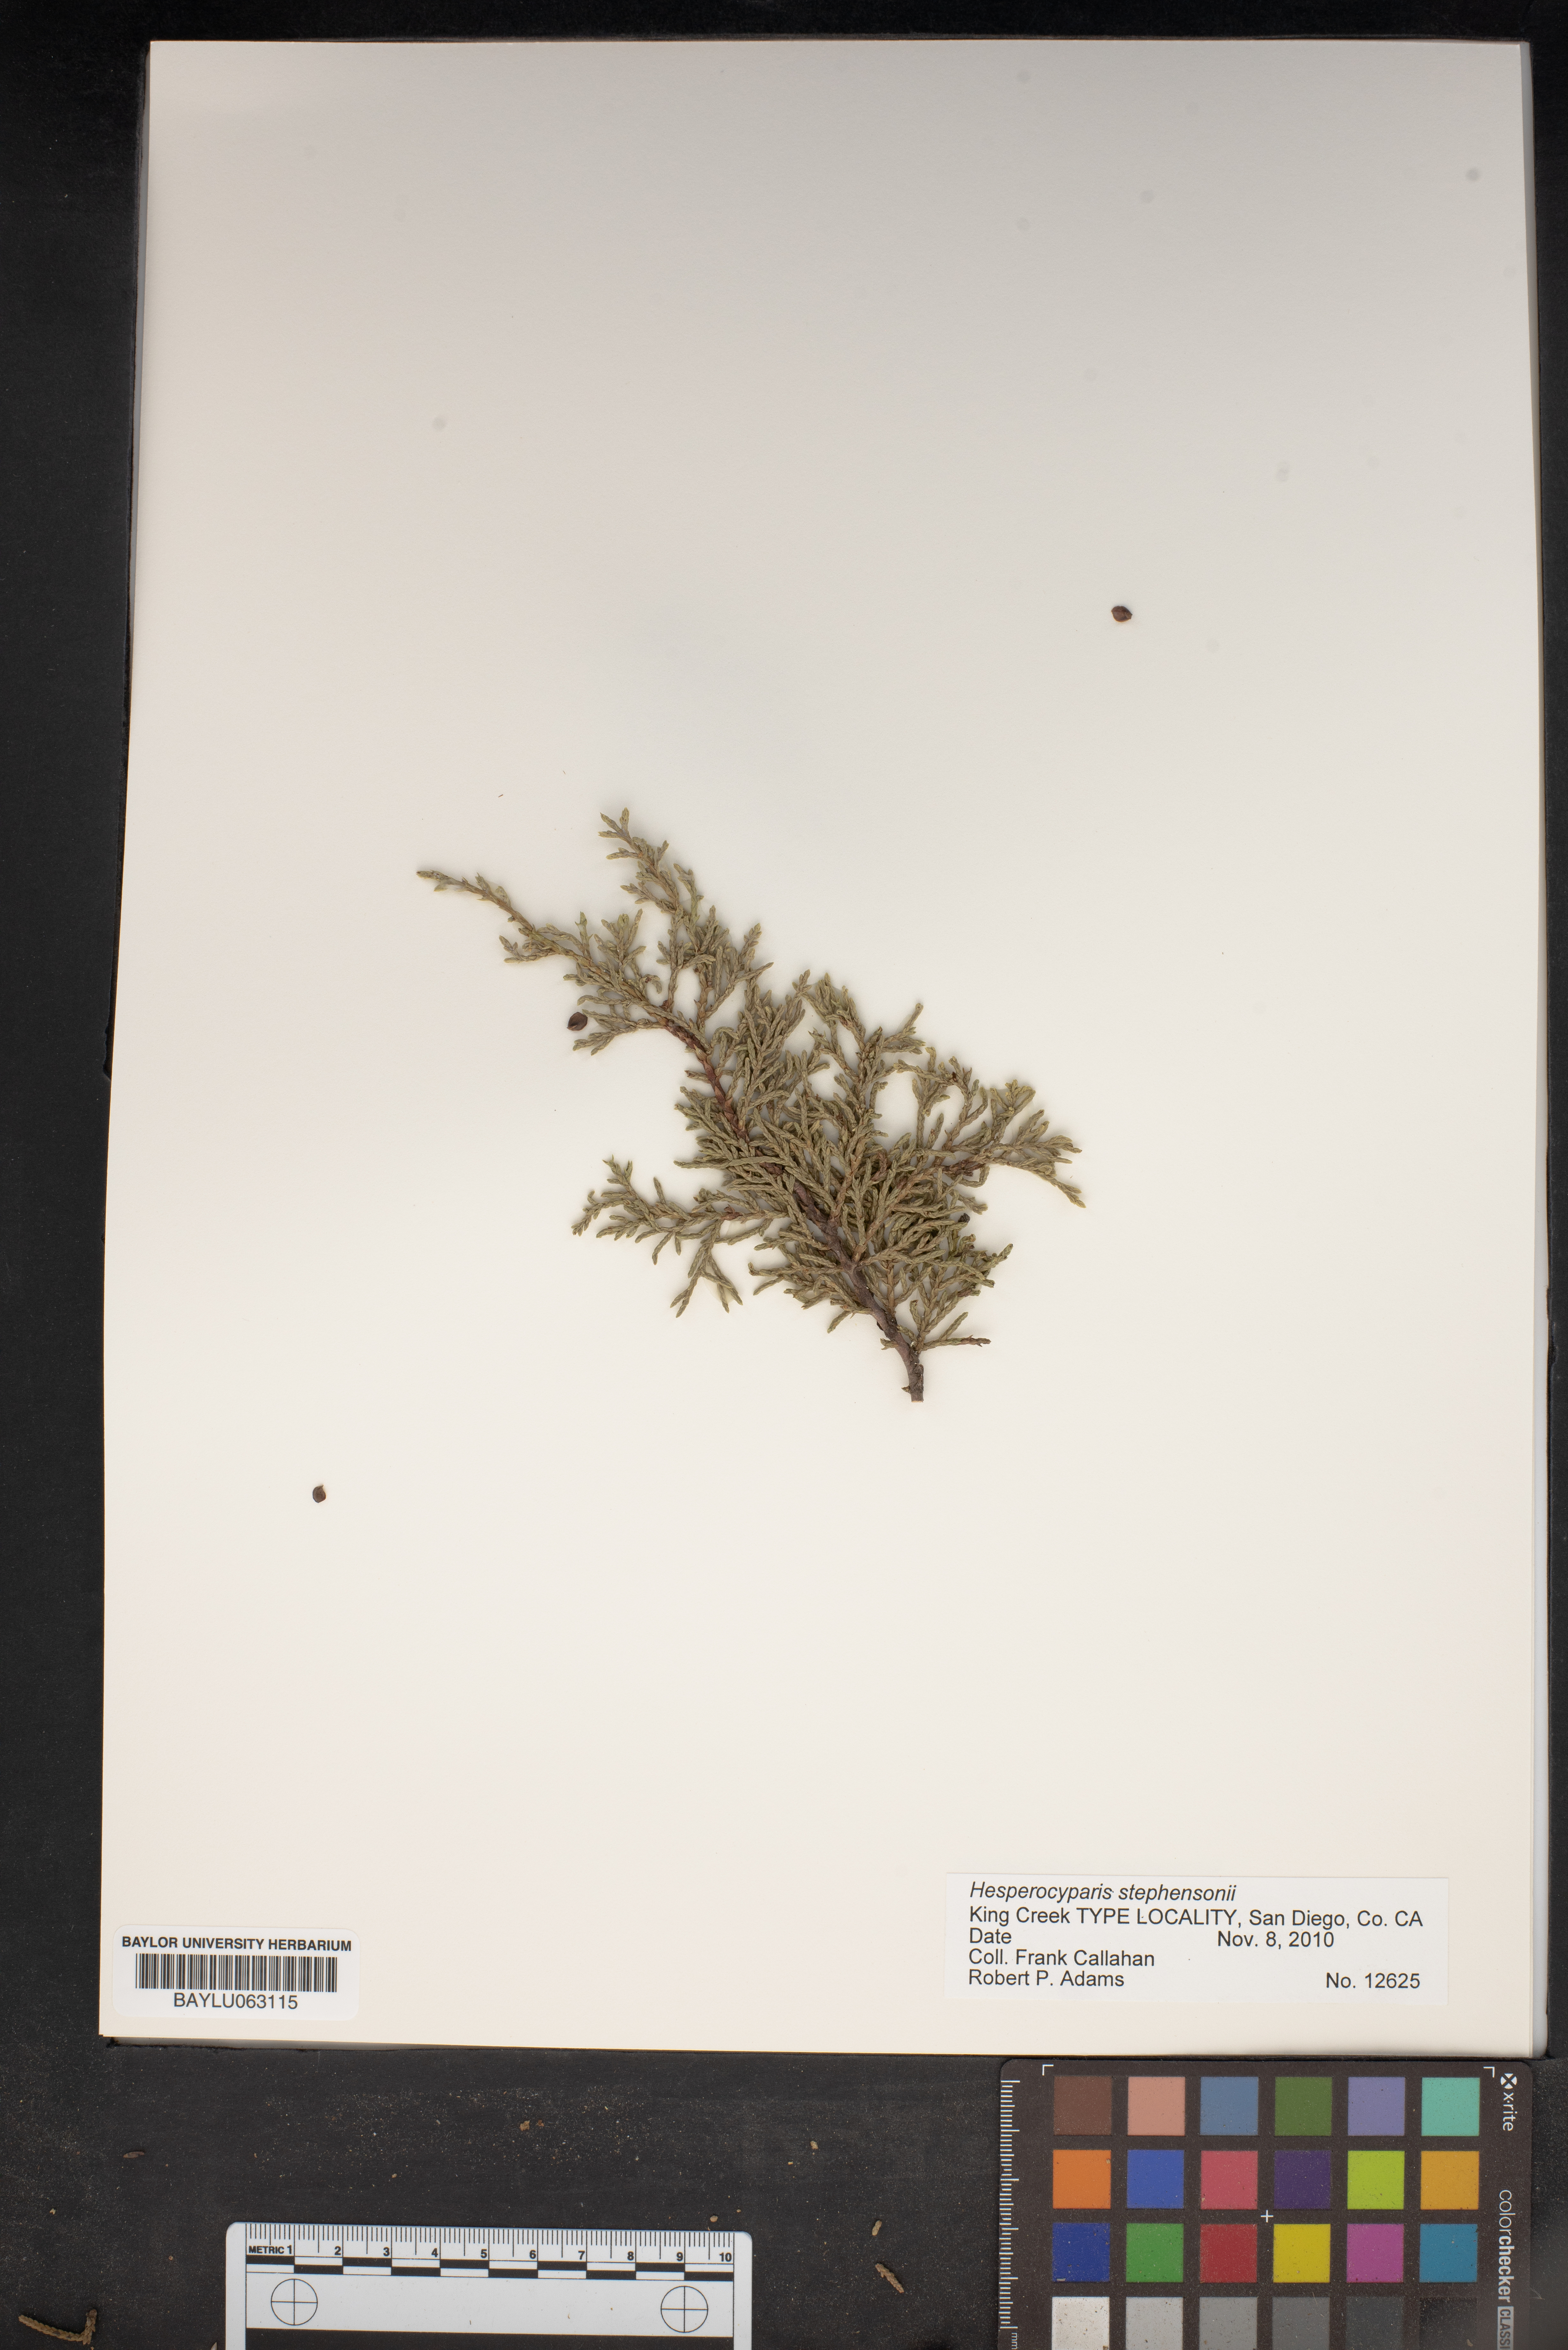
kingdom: Plantae
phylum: Tracheophyta
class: Pinopsida
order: Pinales
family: Cupressaceae
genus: Cupressus
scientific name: Cupressus arizonica
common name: Arizona cypress
